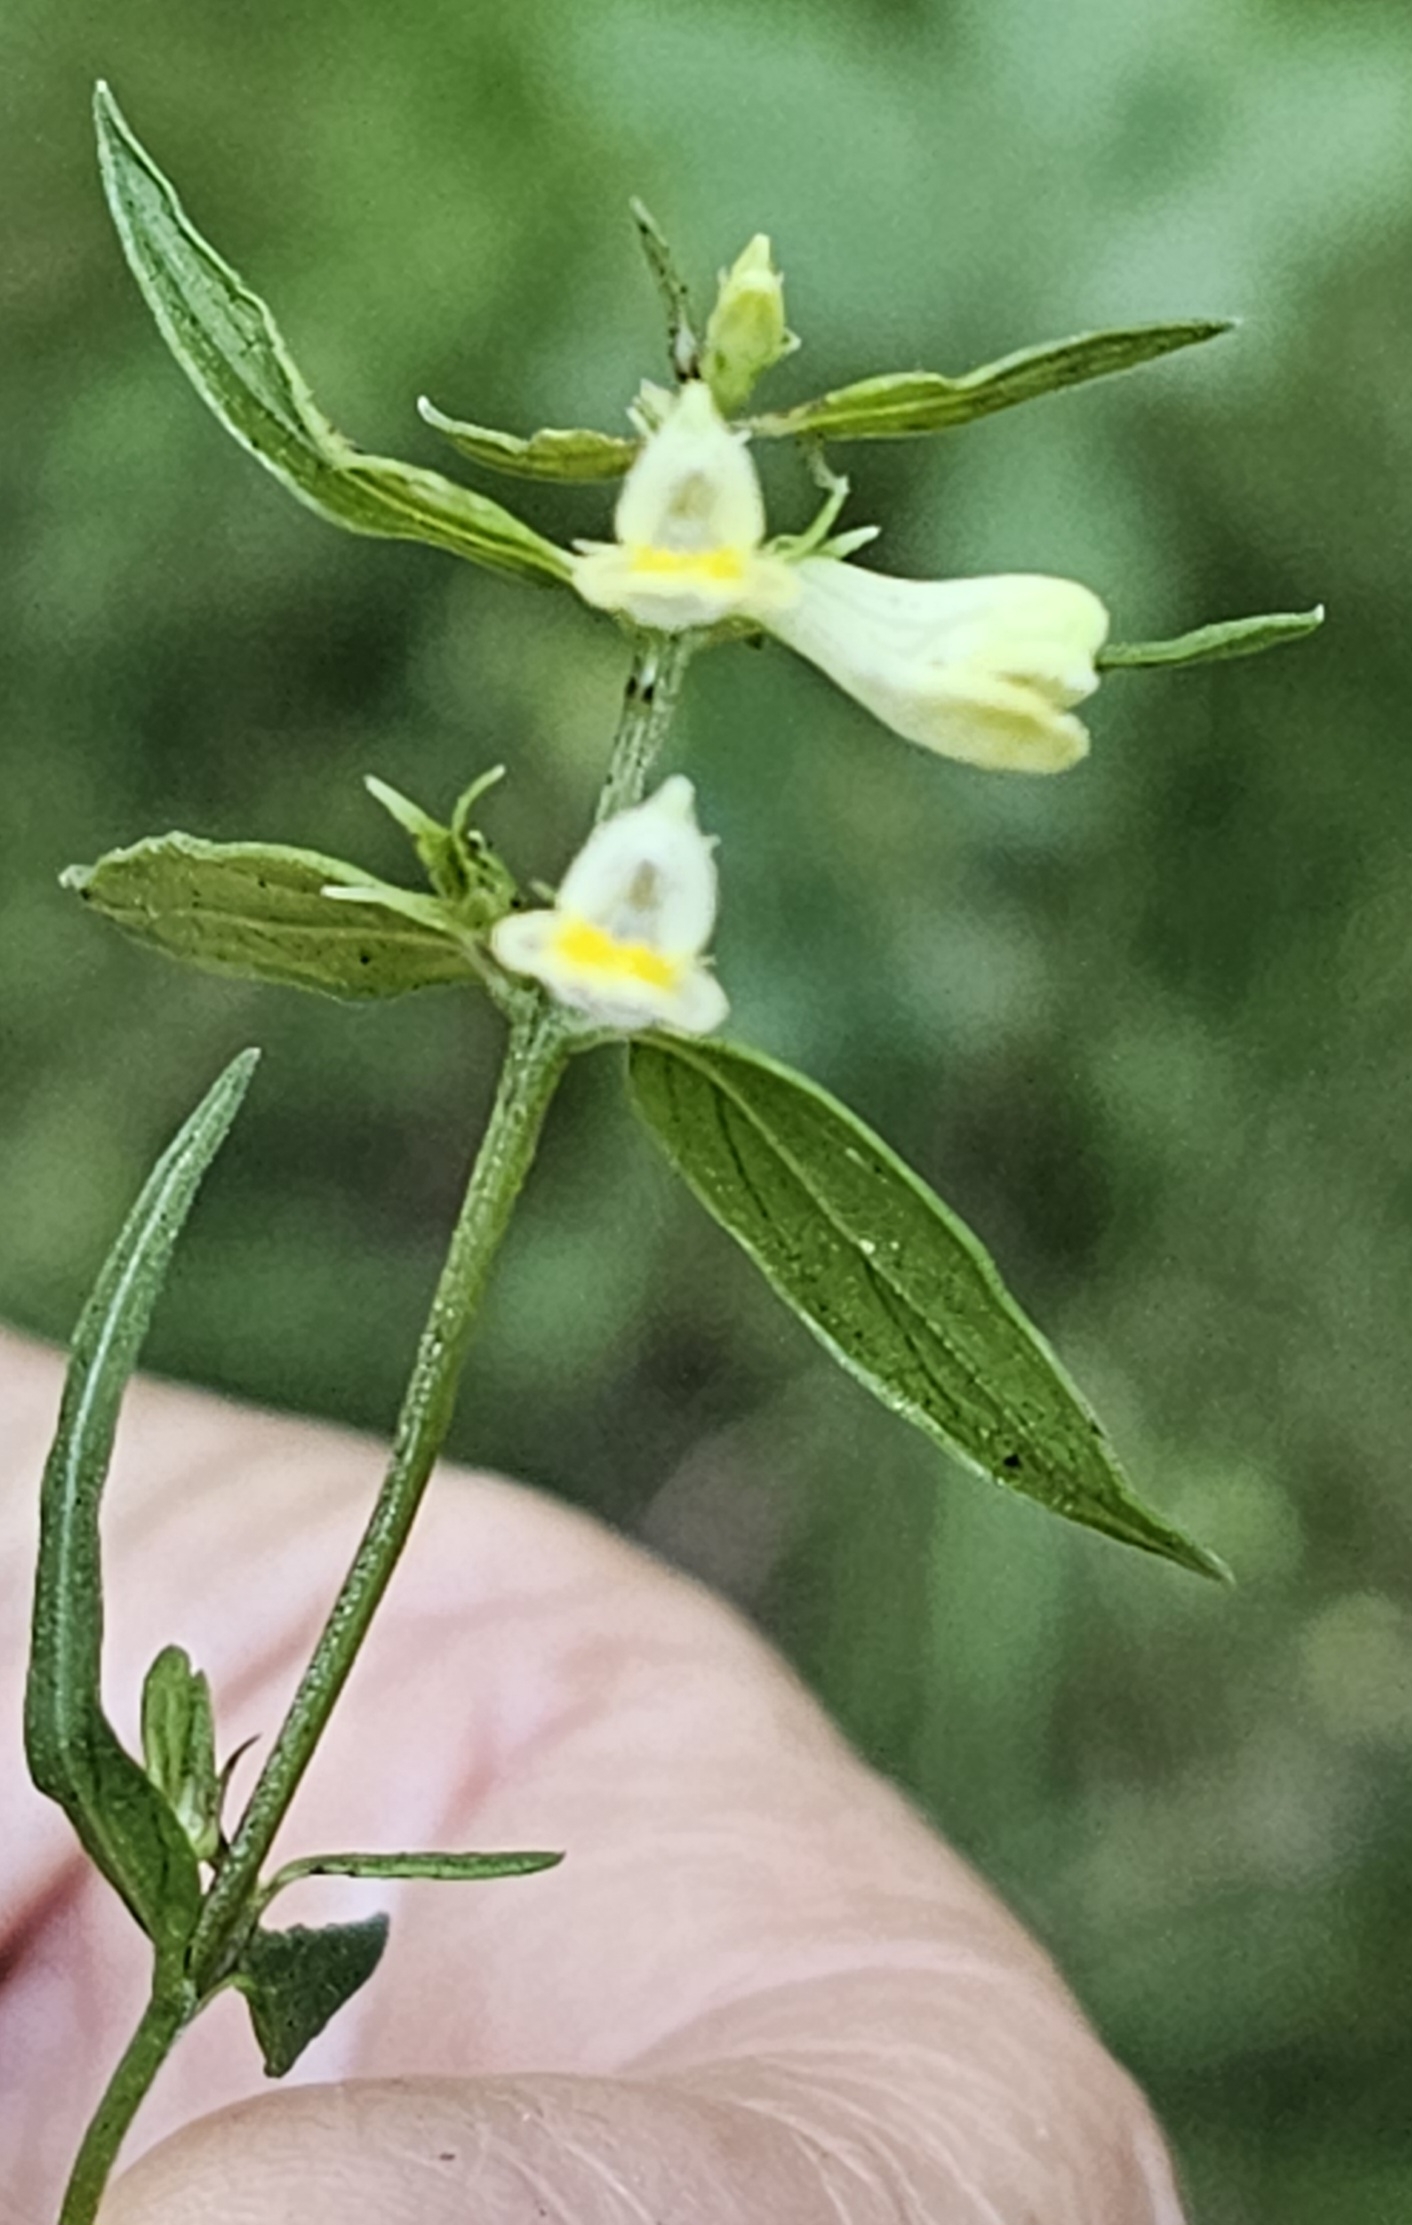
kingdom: Plantae
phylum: Tracheophyta
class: Magnoliopsida
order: Lamiales
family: Orobanchaceae
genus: Melampyrum
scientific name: Melampyrum pratense
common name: Almindelig kohvede
